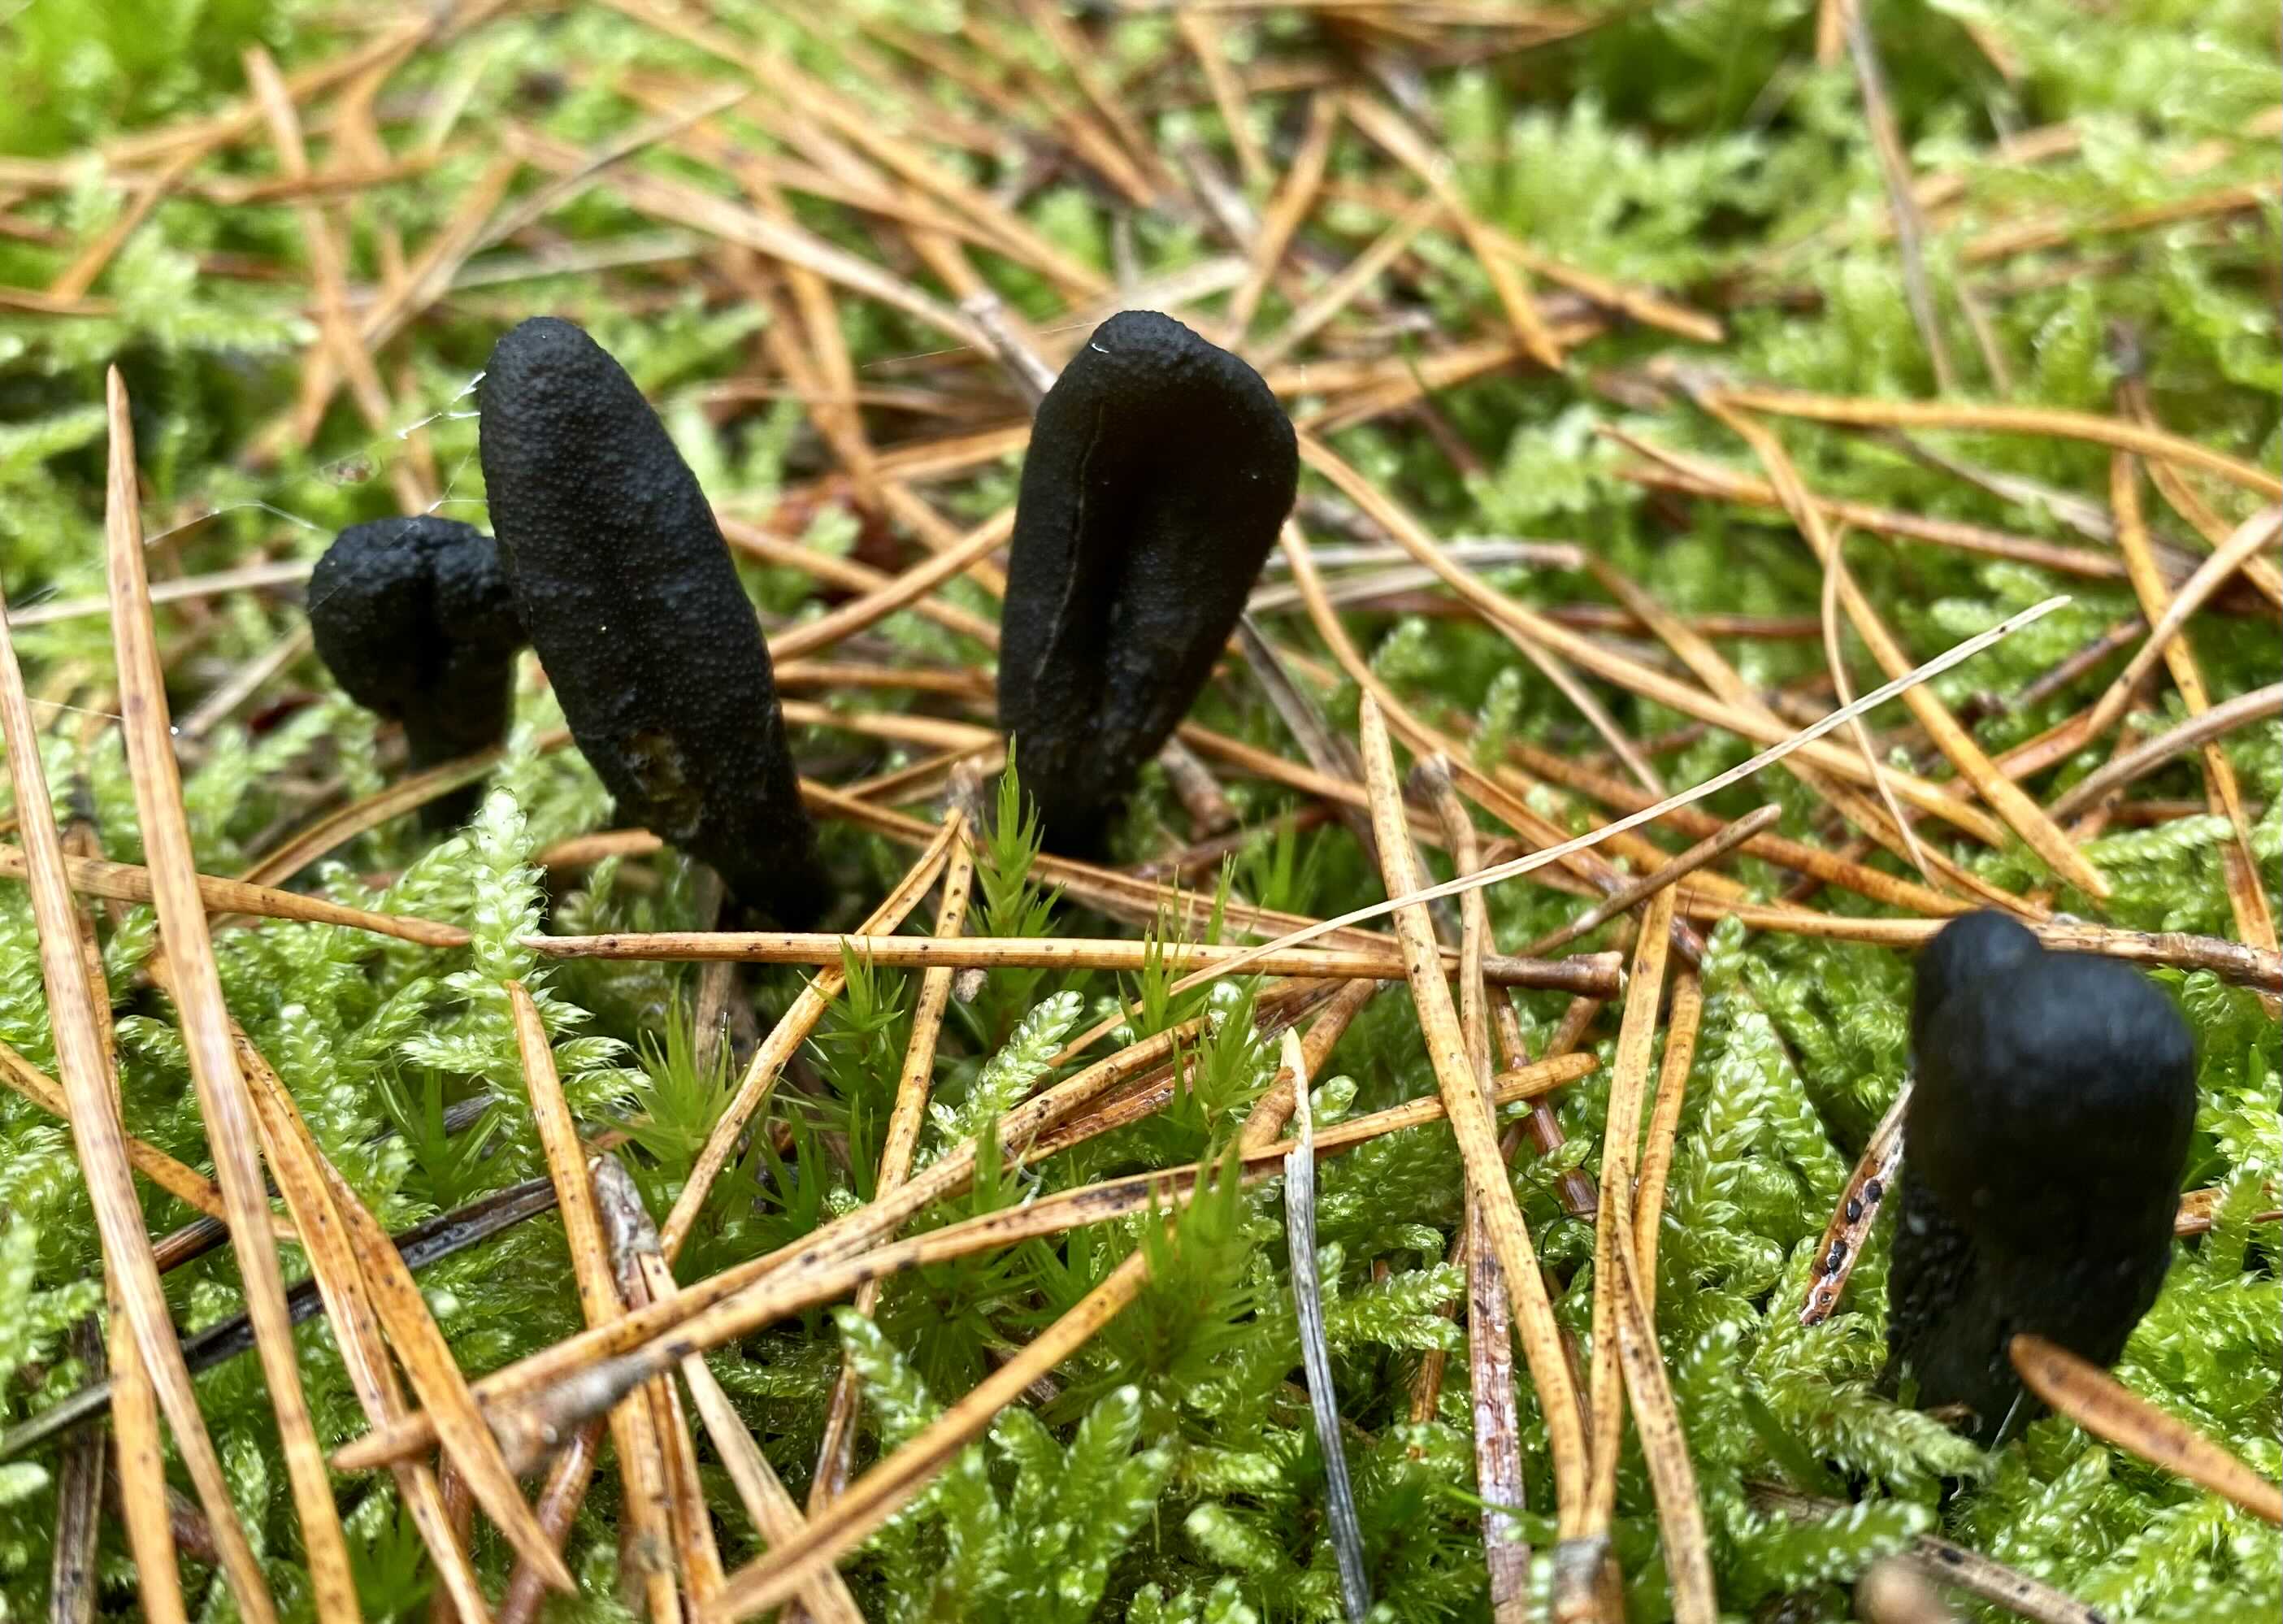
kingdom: Fungi
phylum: Ascomycota
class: Sordariomycetes
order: Hypocreales
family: Ophiocordycipitaceae
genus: Tolypocladium
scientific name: Tolypocladium ophioglossoides
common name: slank snyltekølle
